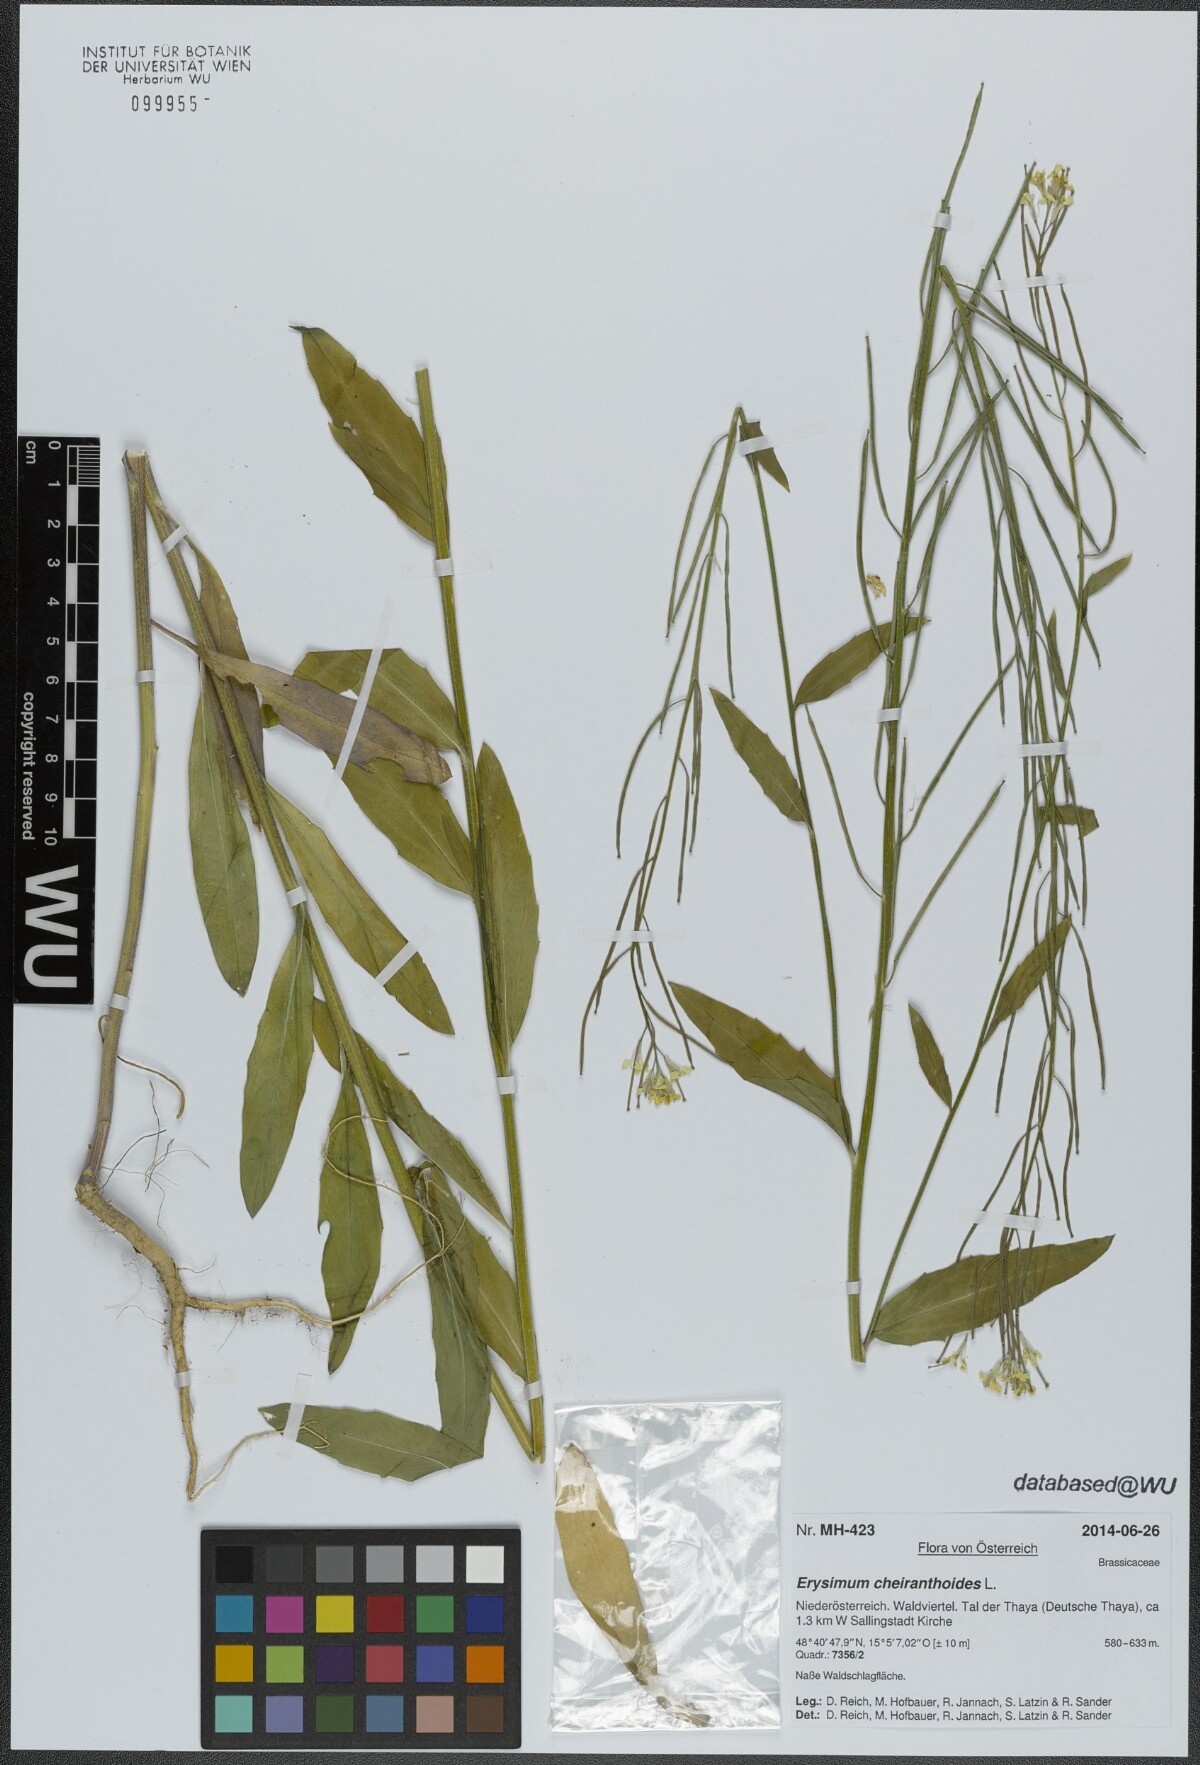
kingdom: Plantae
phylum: Tracheophyta
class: Magnoliopsida
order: Brassicales
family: Brassicaceae
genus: Erysimum
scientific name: Erysimum cheiranthoides
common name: Treacle mustard
